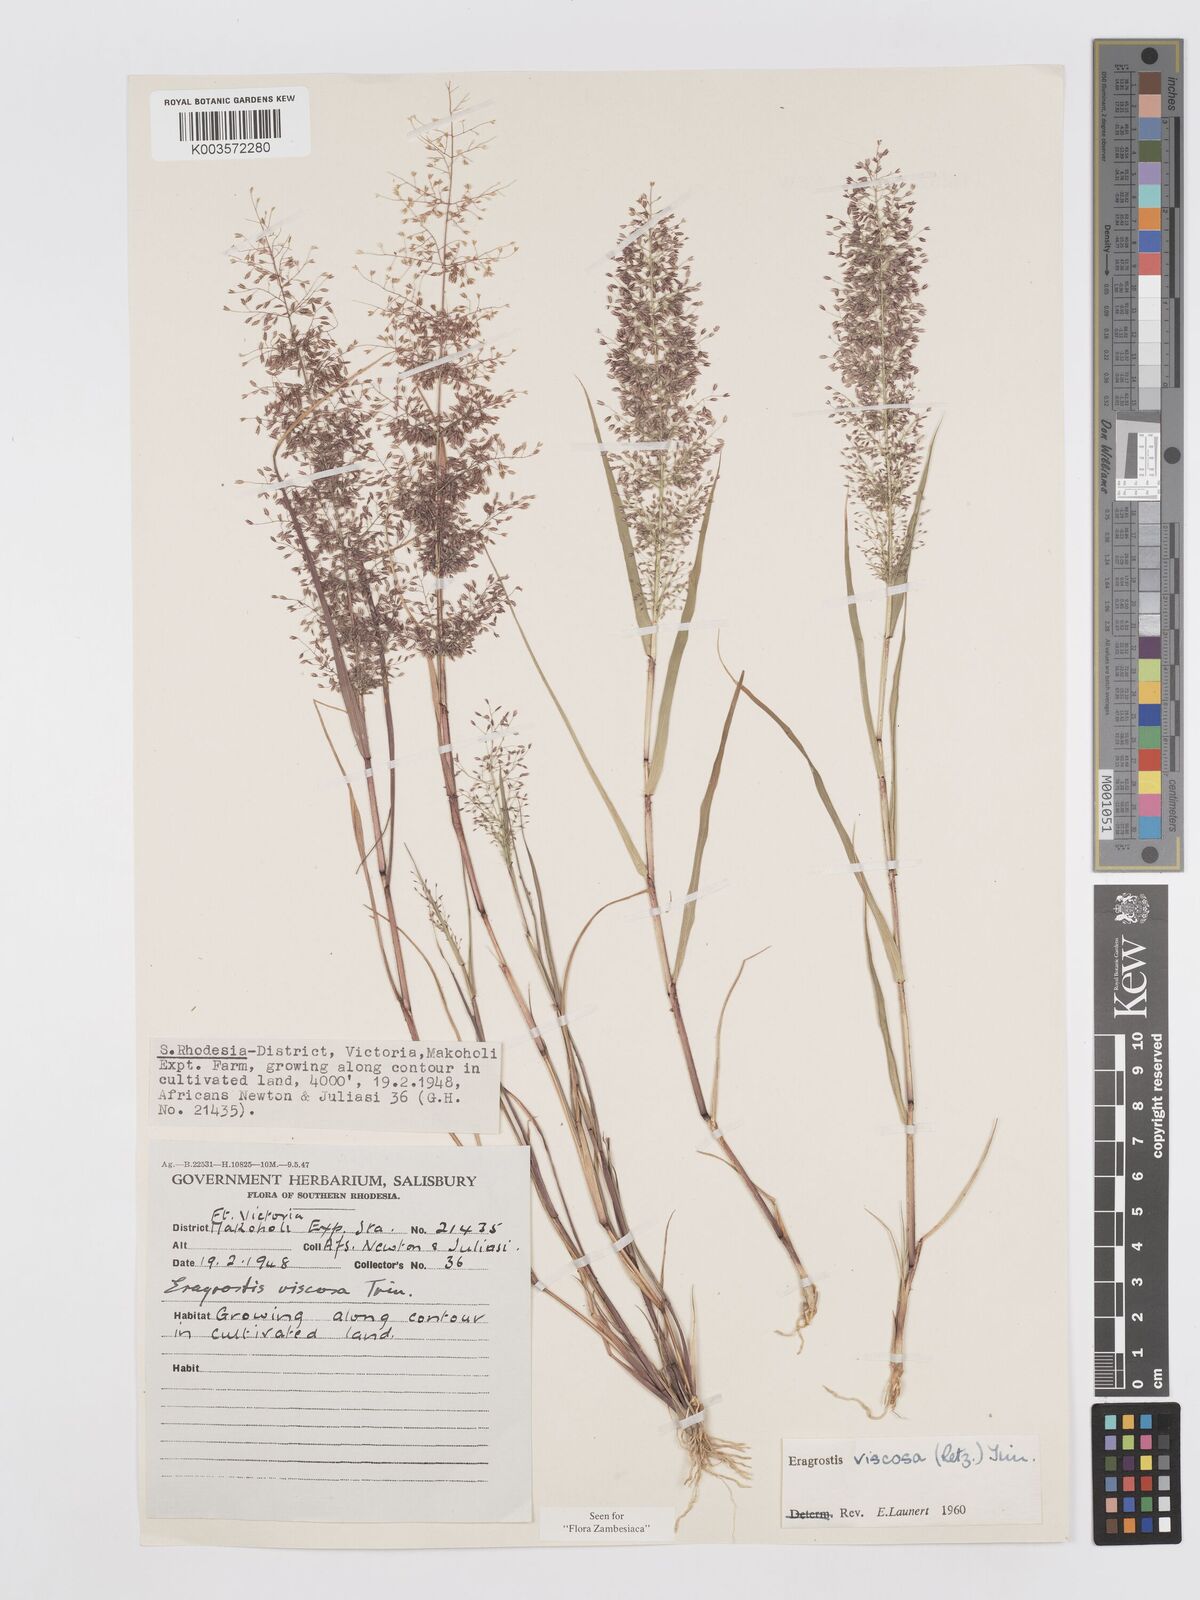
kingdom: Plantae
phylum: Tracheophyta
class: Liliopsida
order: Poales
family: Poaceae
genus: Eragrostis
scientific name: Eragrostis
